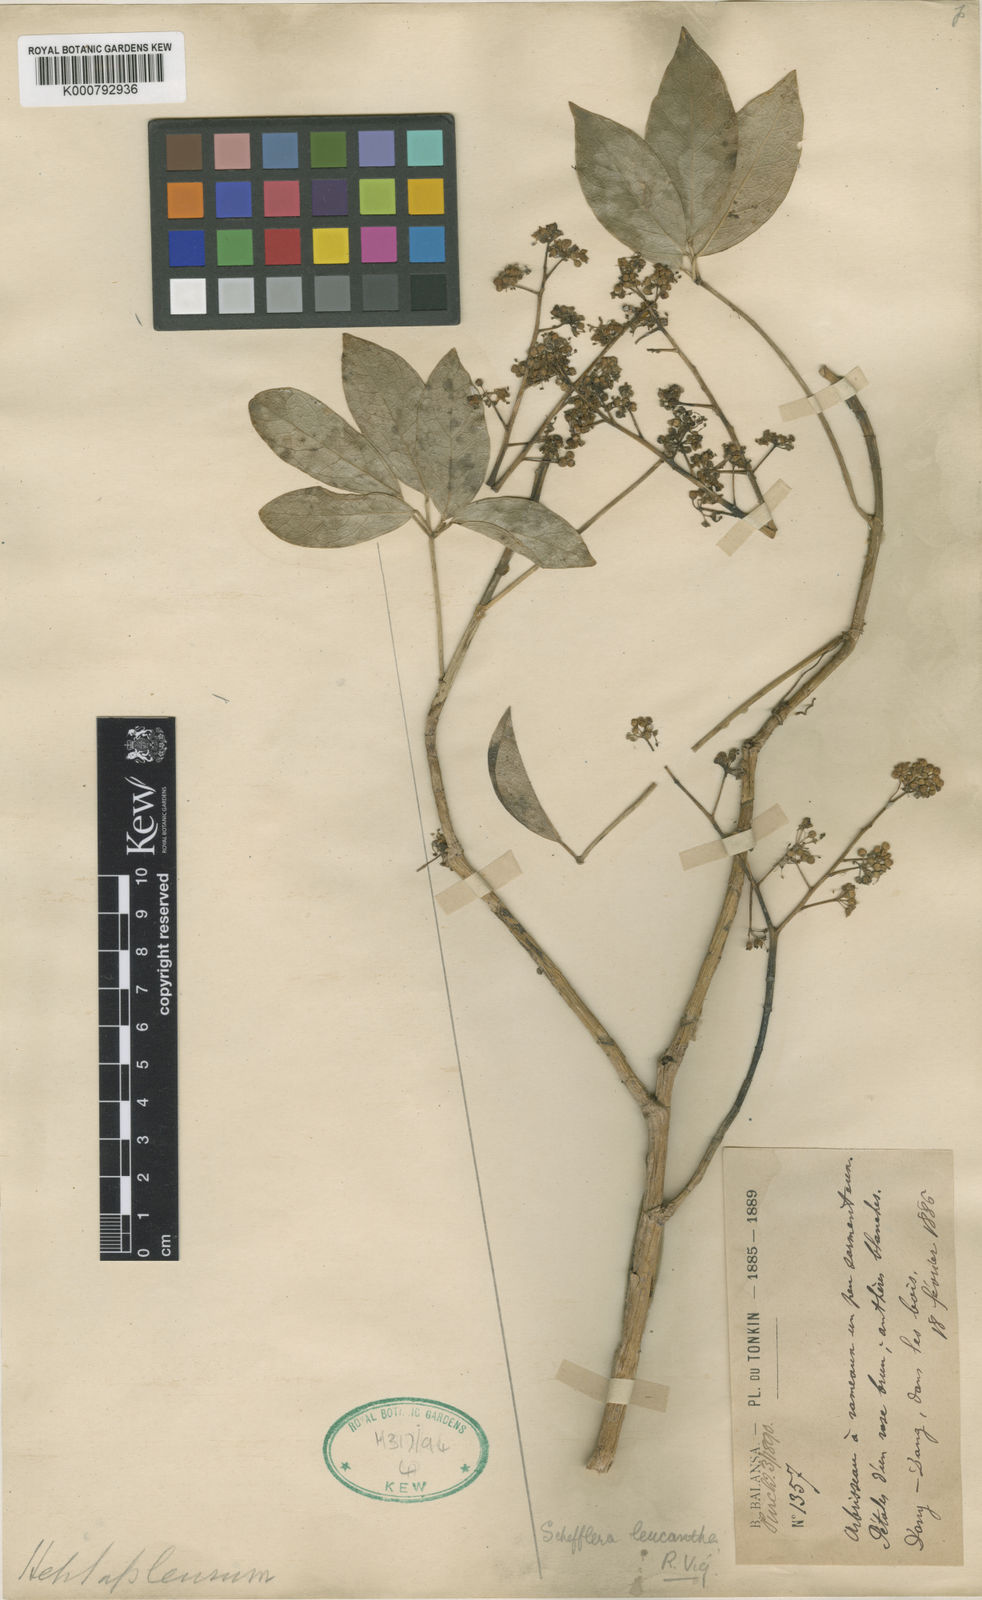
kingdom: Plantae
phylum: Tracheophyta
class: Magnoliopsida
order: Apiales
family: Araliaceae
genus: Heptapleurum
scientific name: Heptapleurum leucanthum
